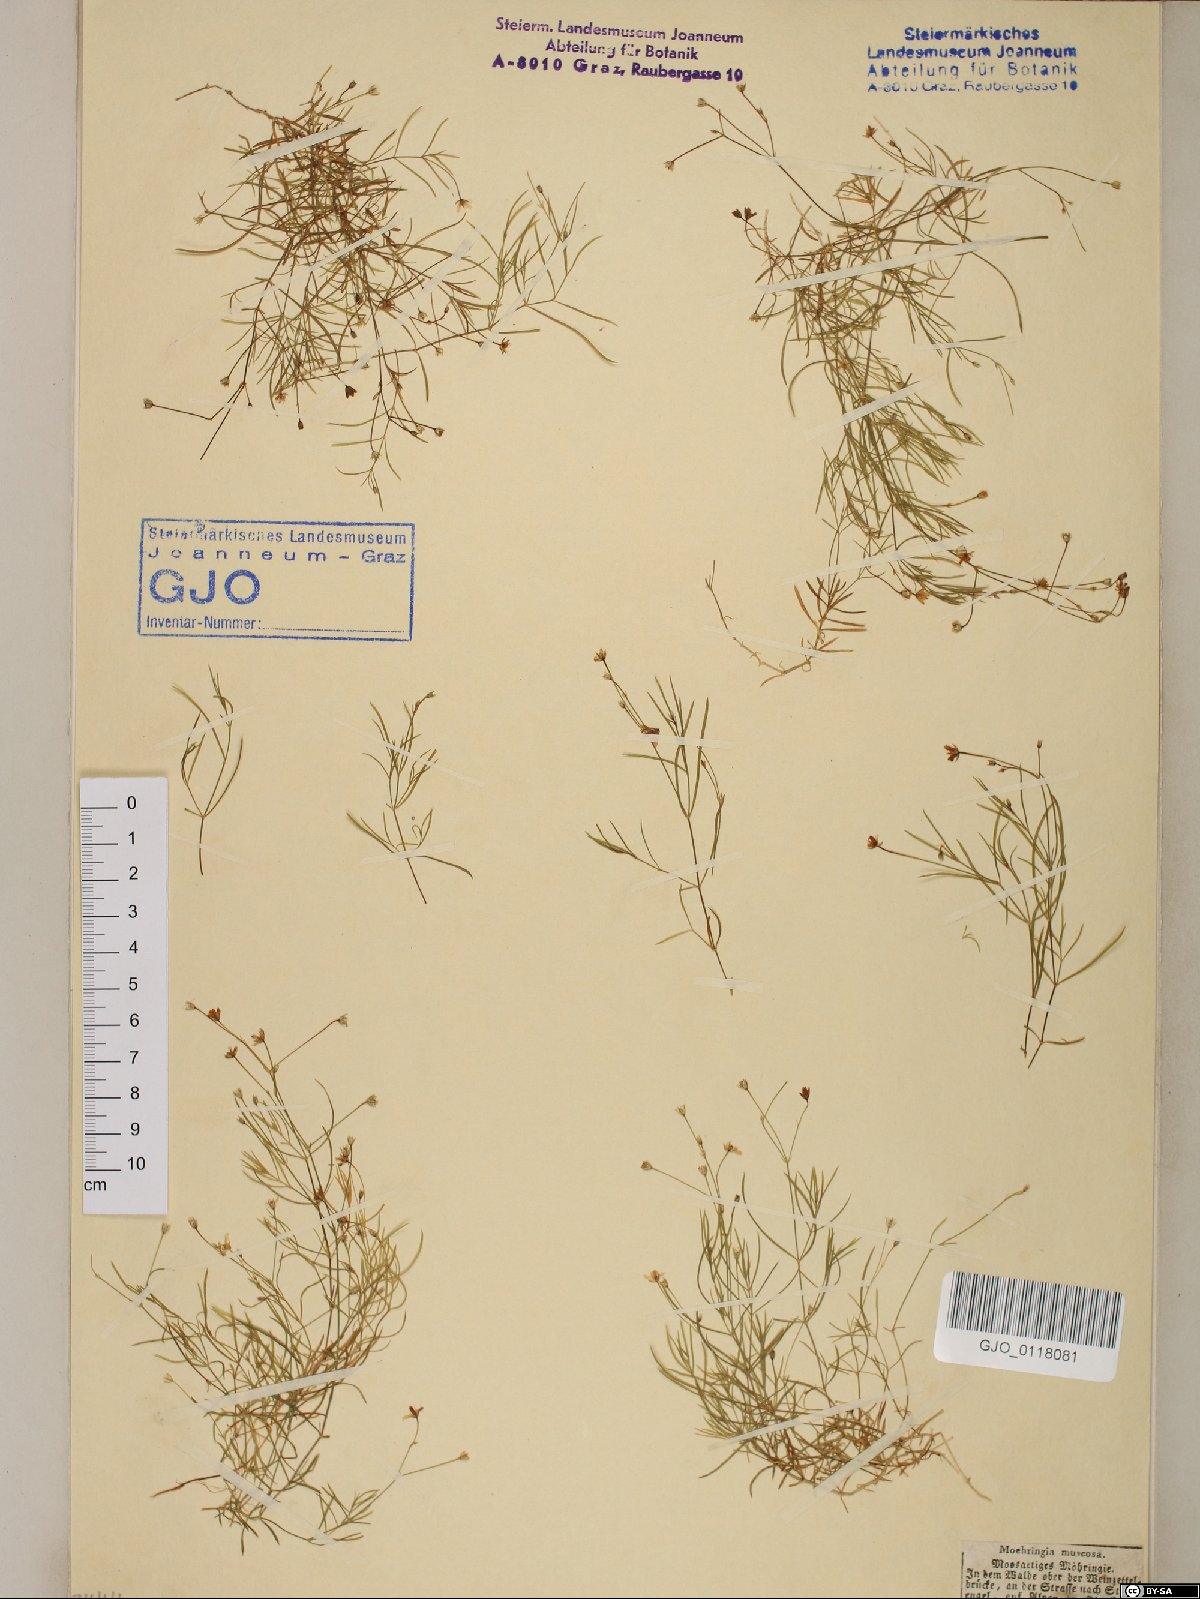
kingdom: Plantae
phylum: Tracheophyta
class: Magnoliopsida
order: Caryophyllales
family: Caryophyllaceae
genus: Moehringia
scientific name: Moehringia muscosa
